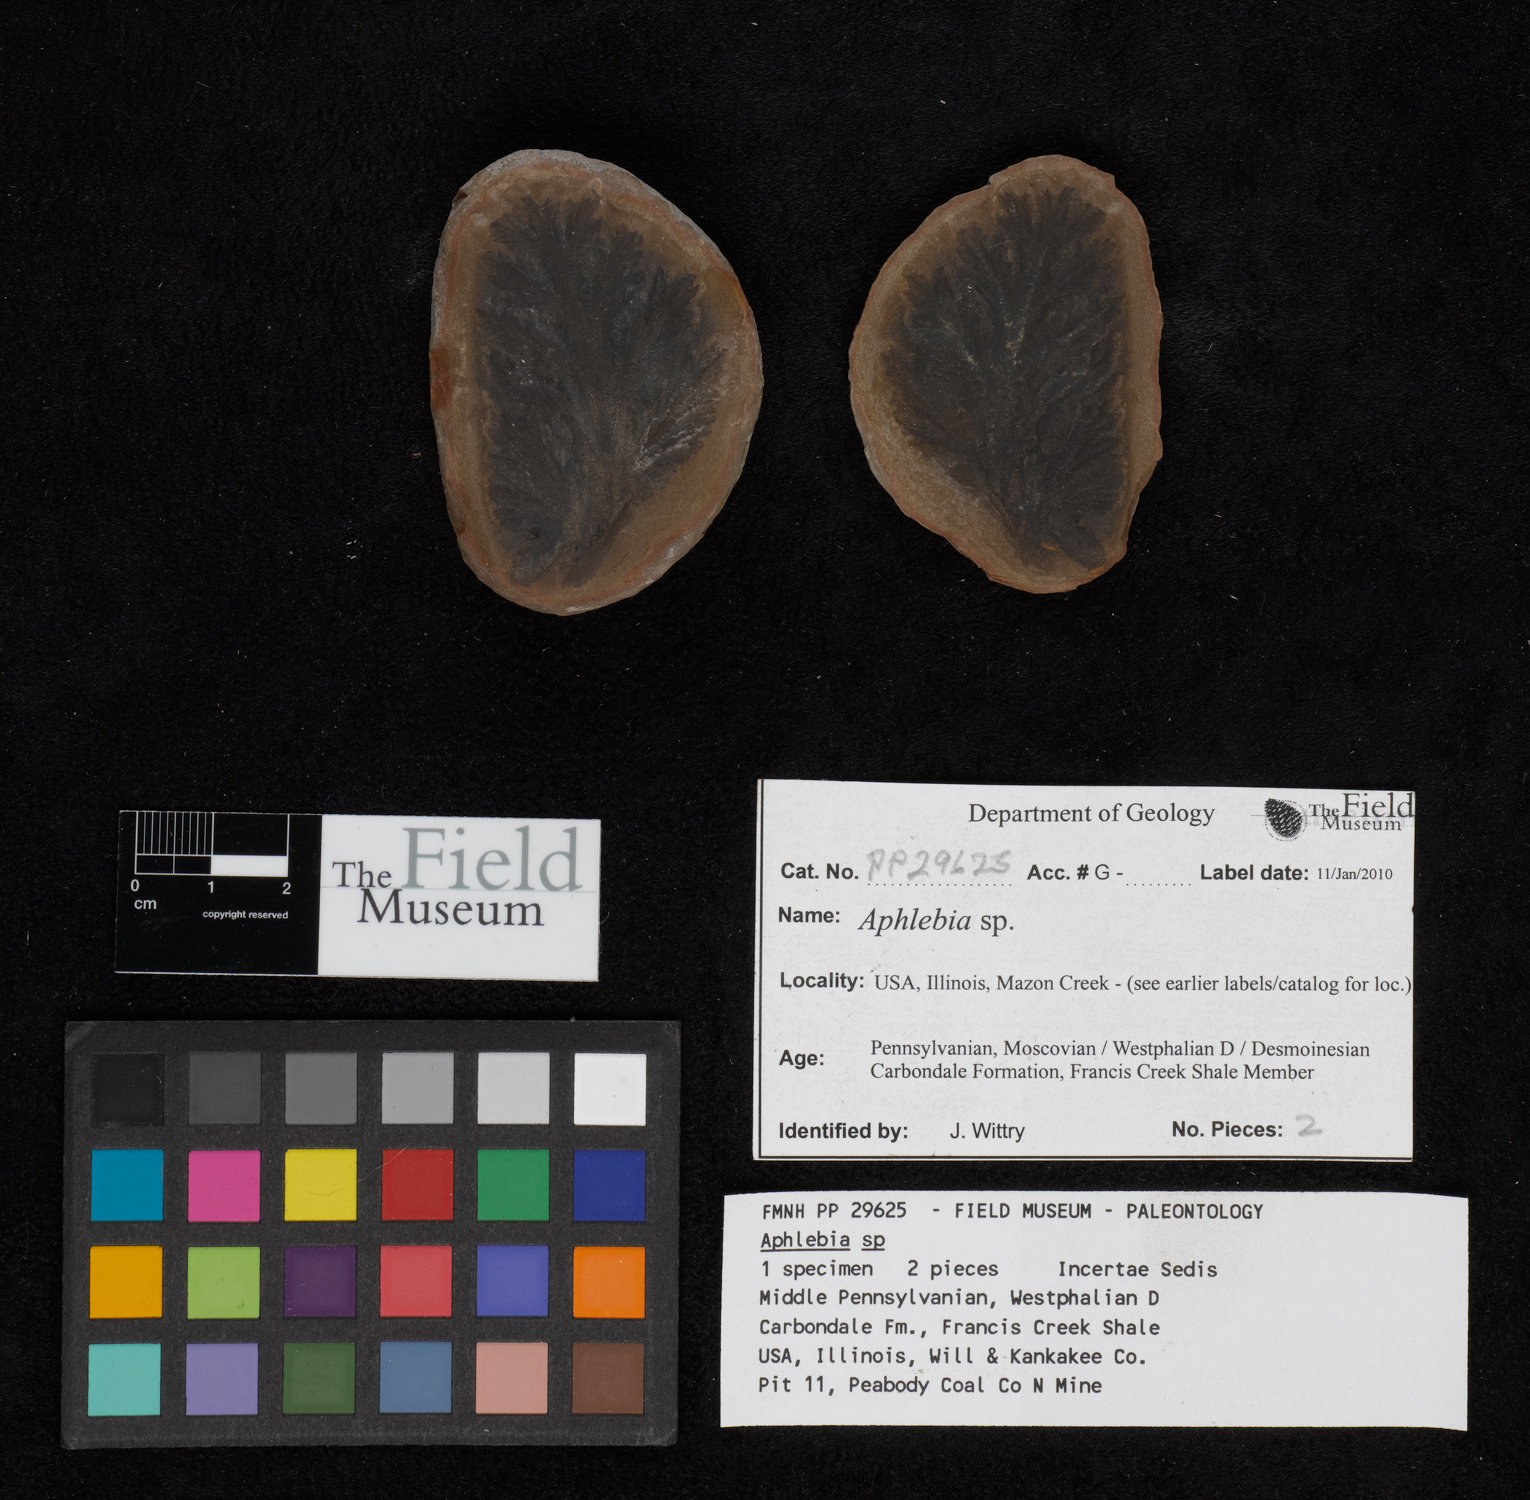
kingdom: Plantae
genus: Rhacophyllum
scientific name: Rhacophyllum
